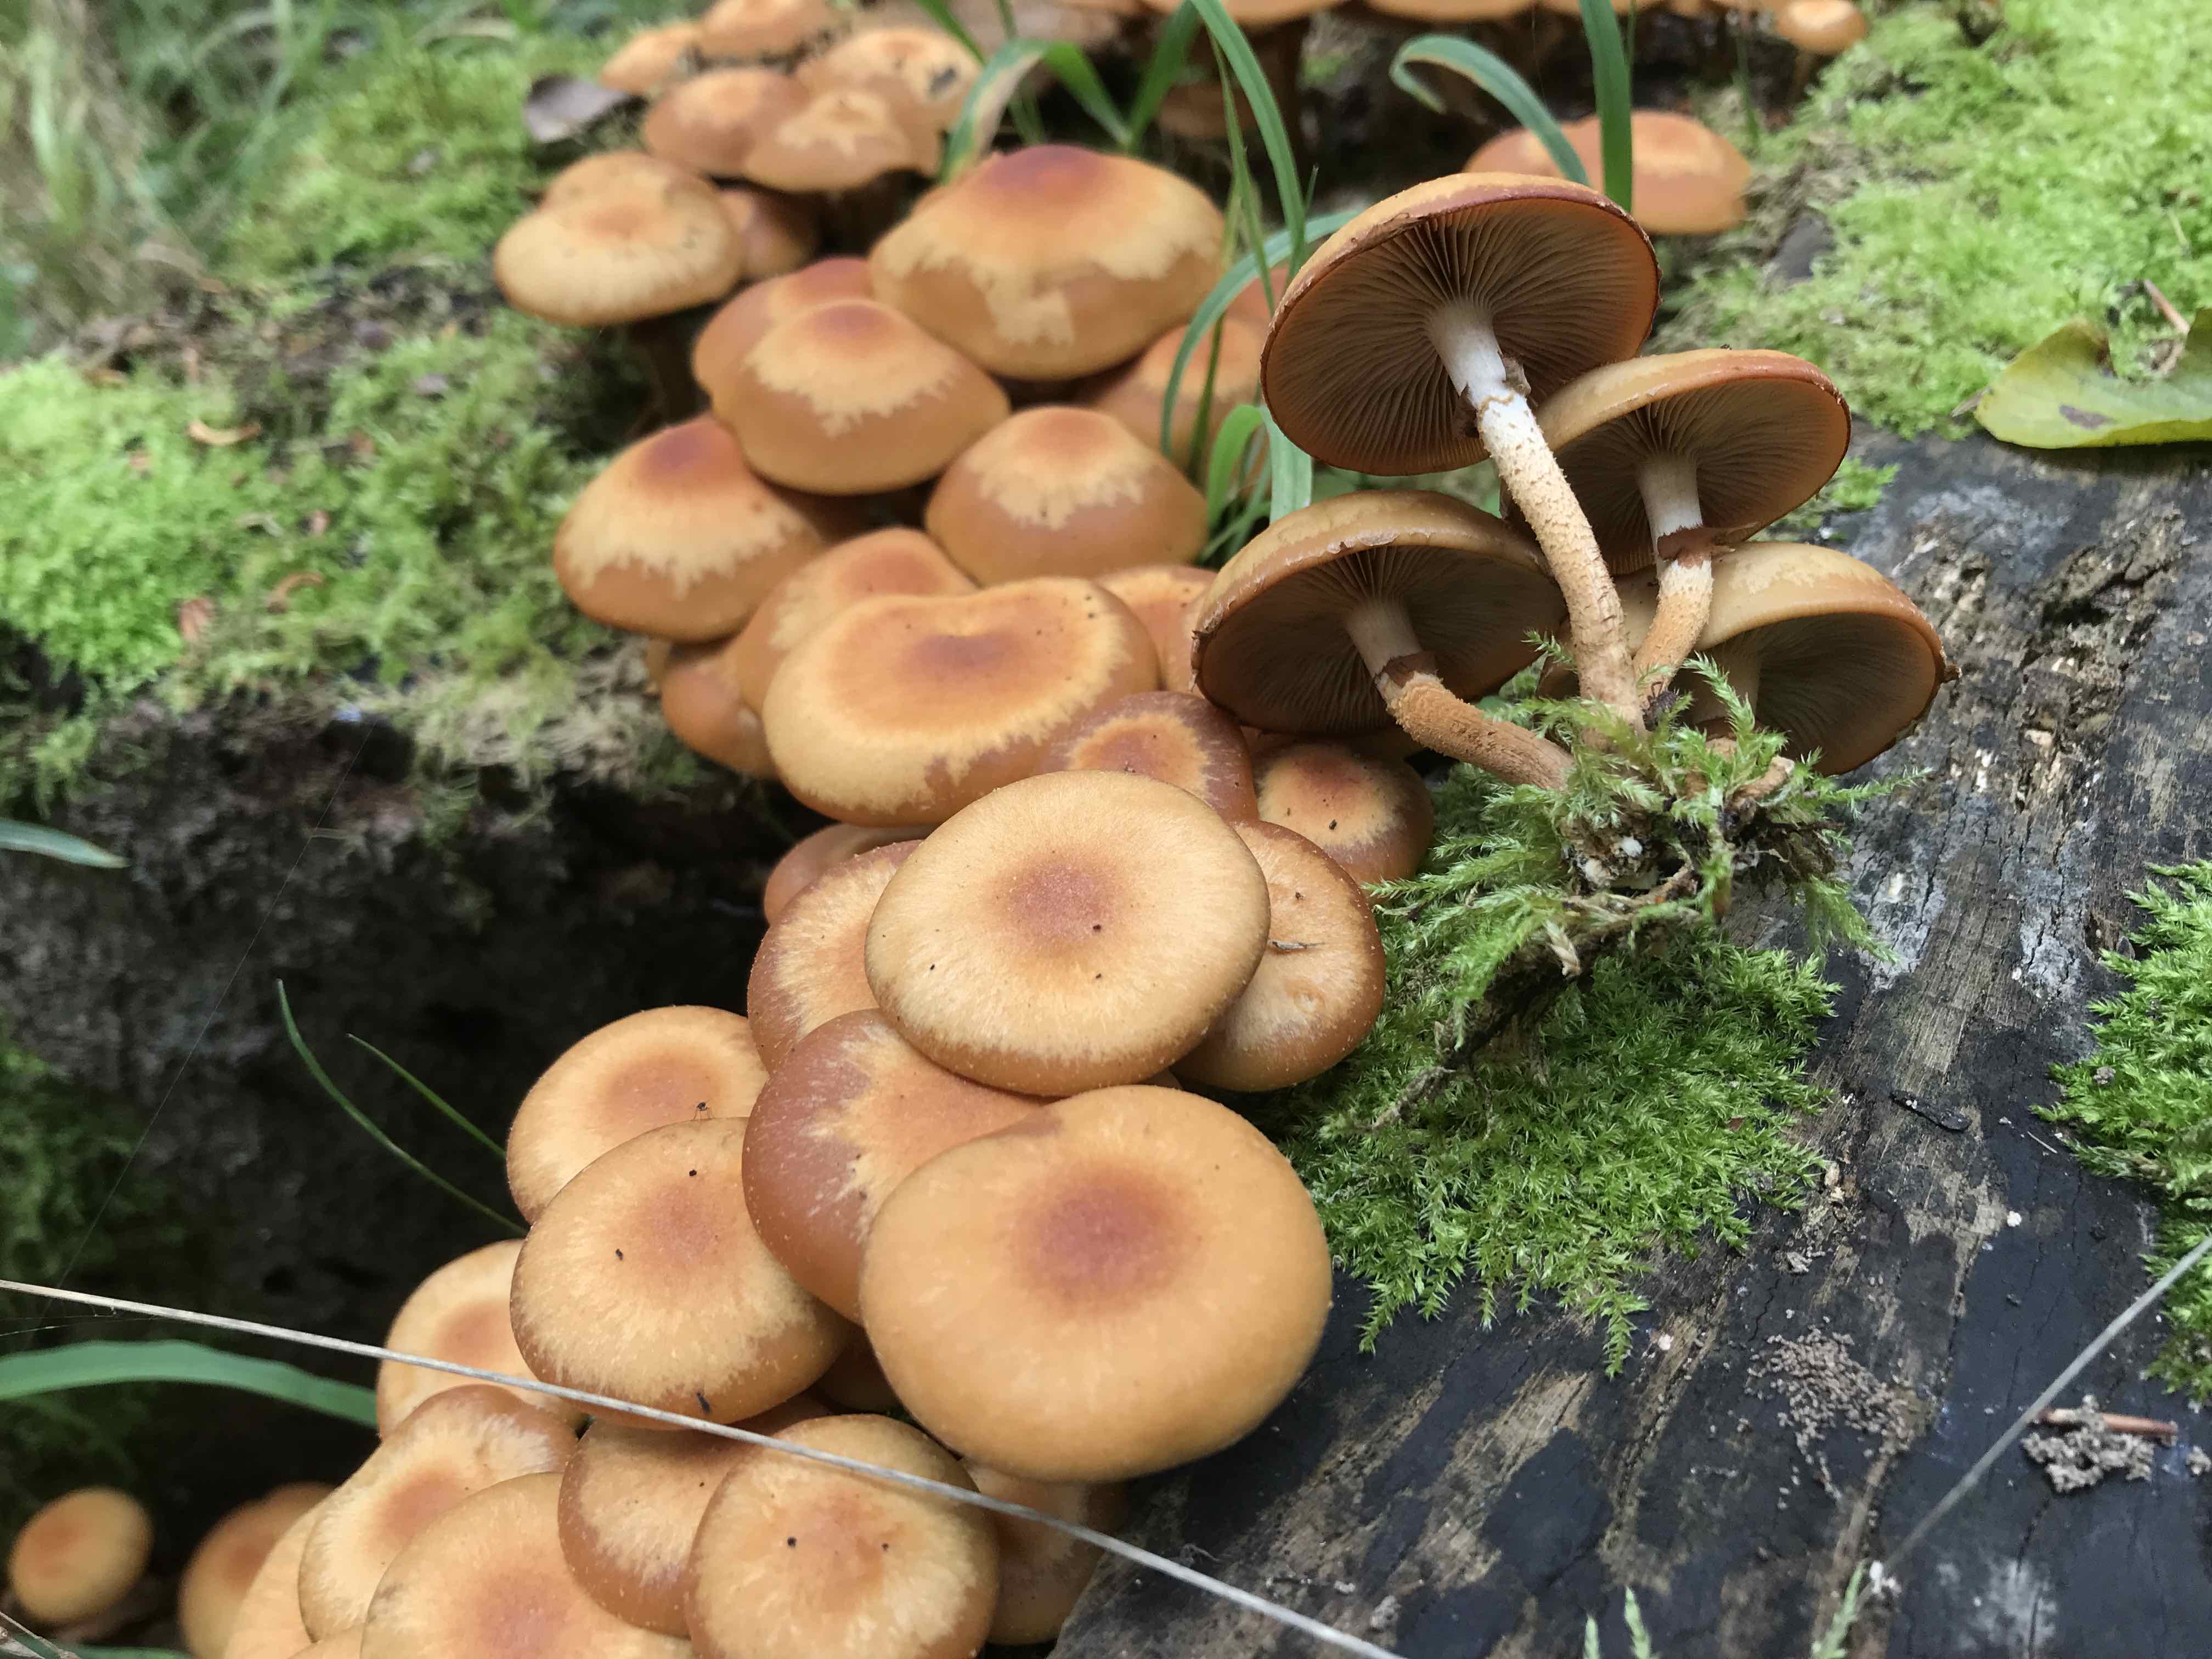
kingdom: Fungi
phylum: Basidiomycota
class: Agaricomycetes
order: Agaricales
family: Strophariaceae
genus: Kuehneromyces
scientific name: Kuehneromyces mutabilis
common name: foranderlig skælhat
